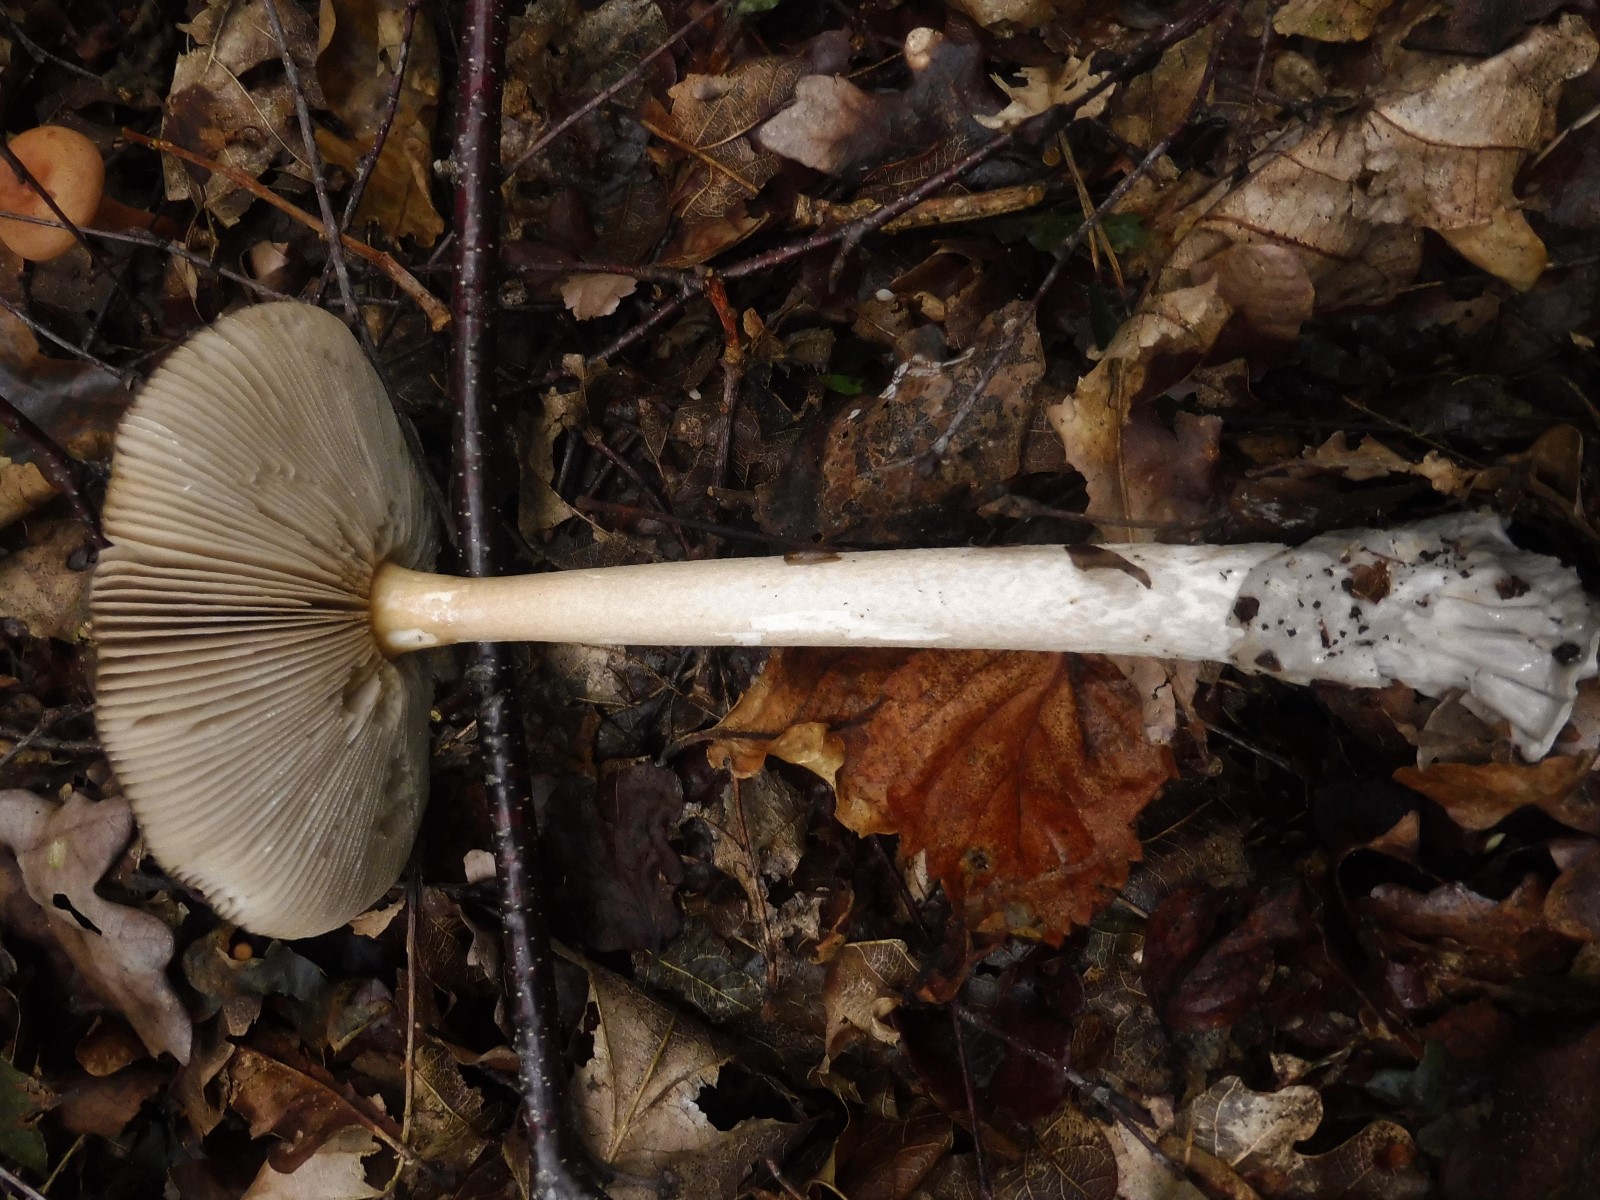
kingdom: Fungi
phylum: Basidiomycota
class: Agaricomycetes
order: Agaricales
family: Amanitaceae
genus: Amanita
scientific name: Amanita submembranacea
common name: gråspættet kam-fluesvamp
